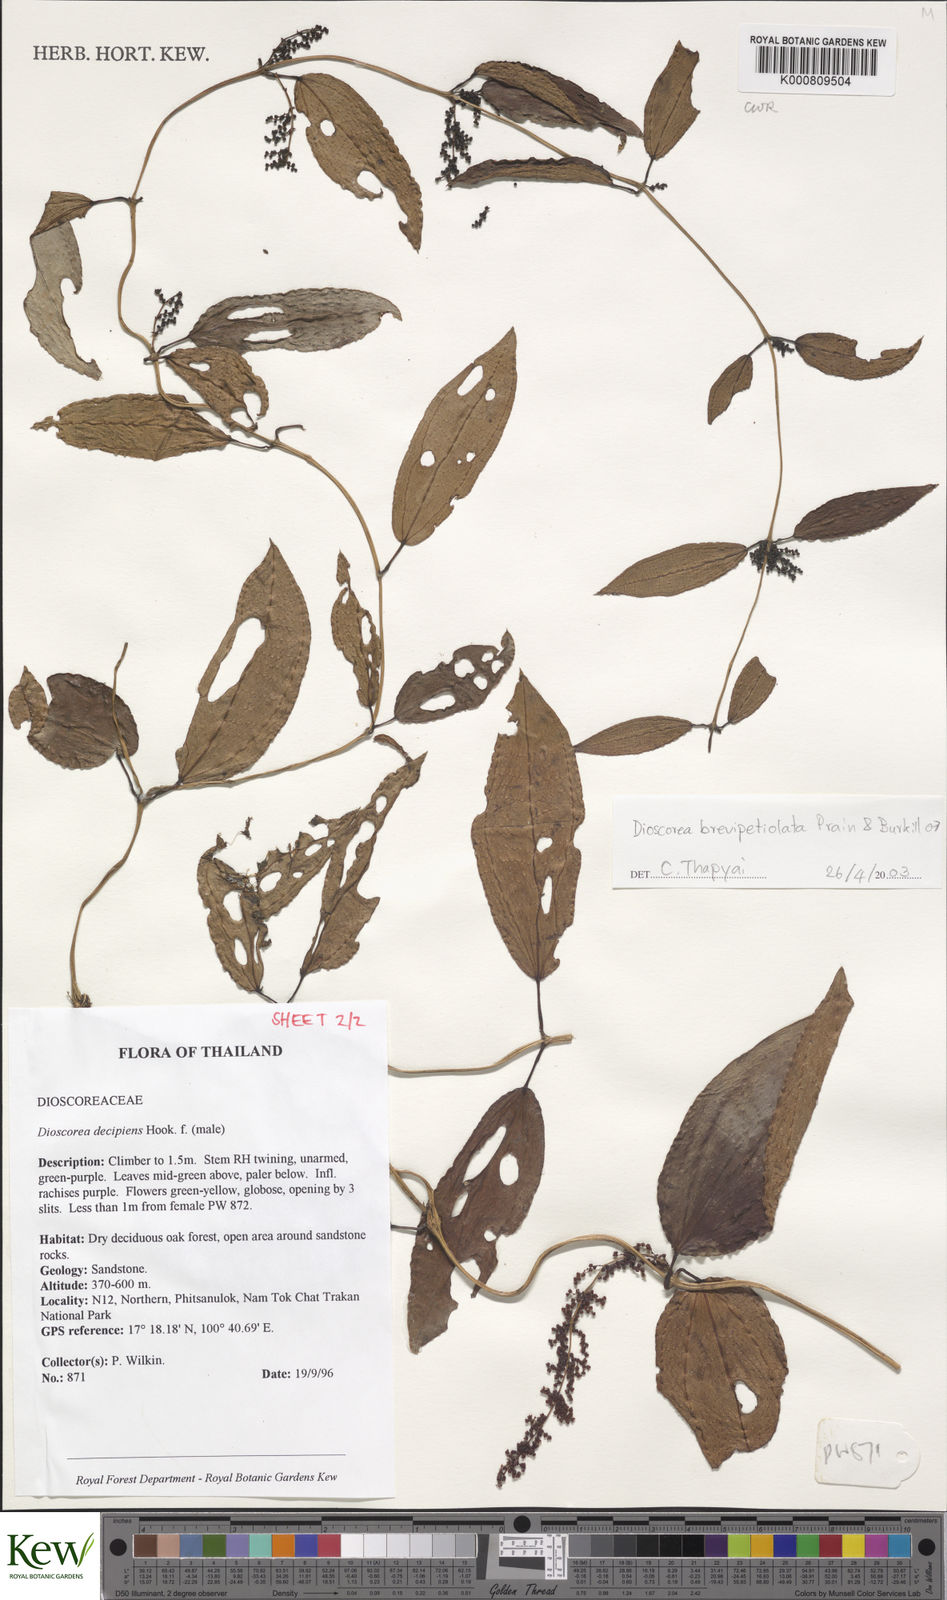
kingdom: Plantae
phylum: Tracheophyta
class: Liliopsida
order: Dioscoreales
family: Dioscoreaceae
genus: Dioscorea
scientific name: Dioscorea brevipetiolata
